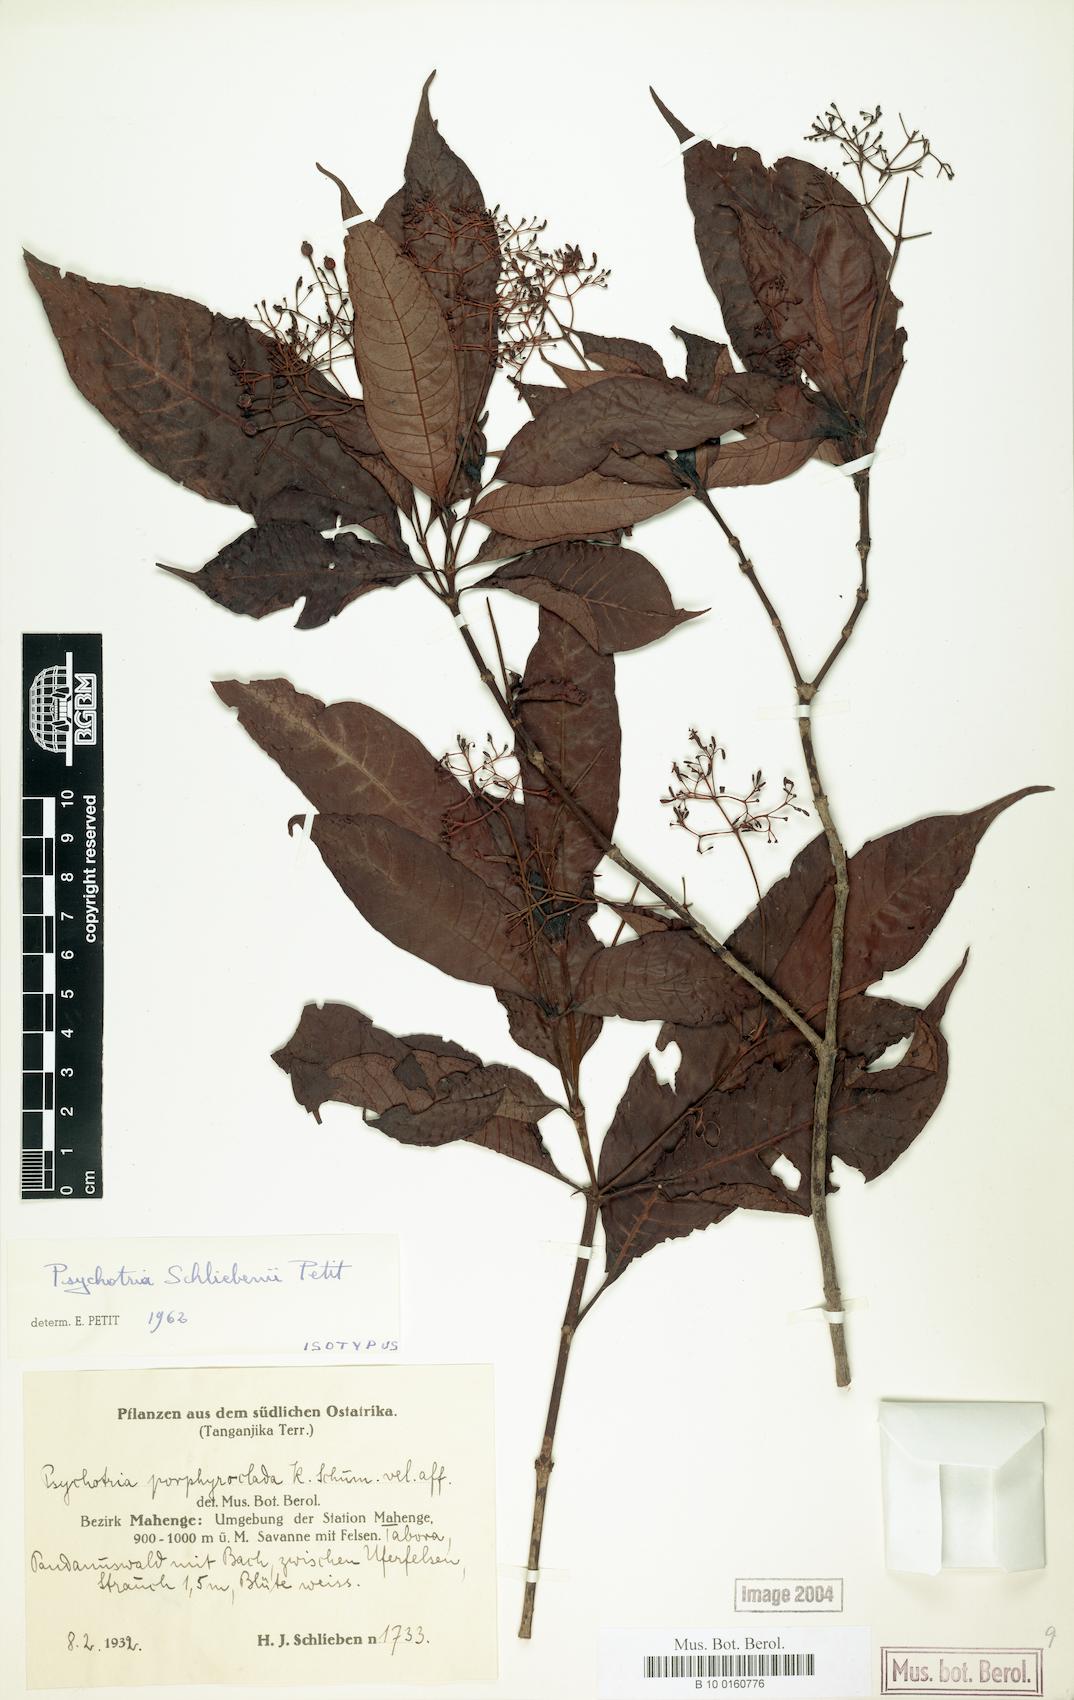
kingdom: Plantae
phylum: Tracheophyta
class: Magnoliopsida
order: Gentianales
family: Rubiaceae
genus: Psychotria
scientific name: Psychotria schliebenii
